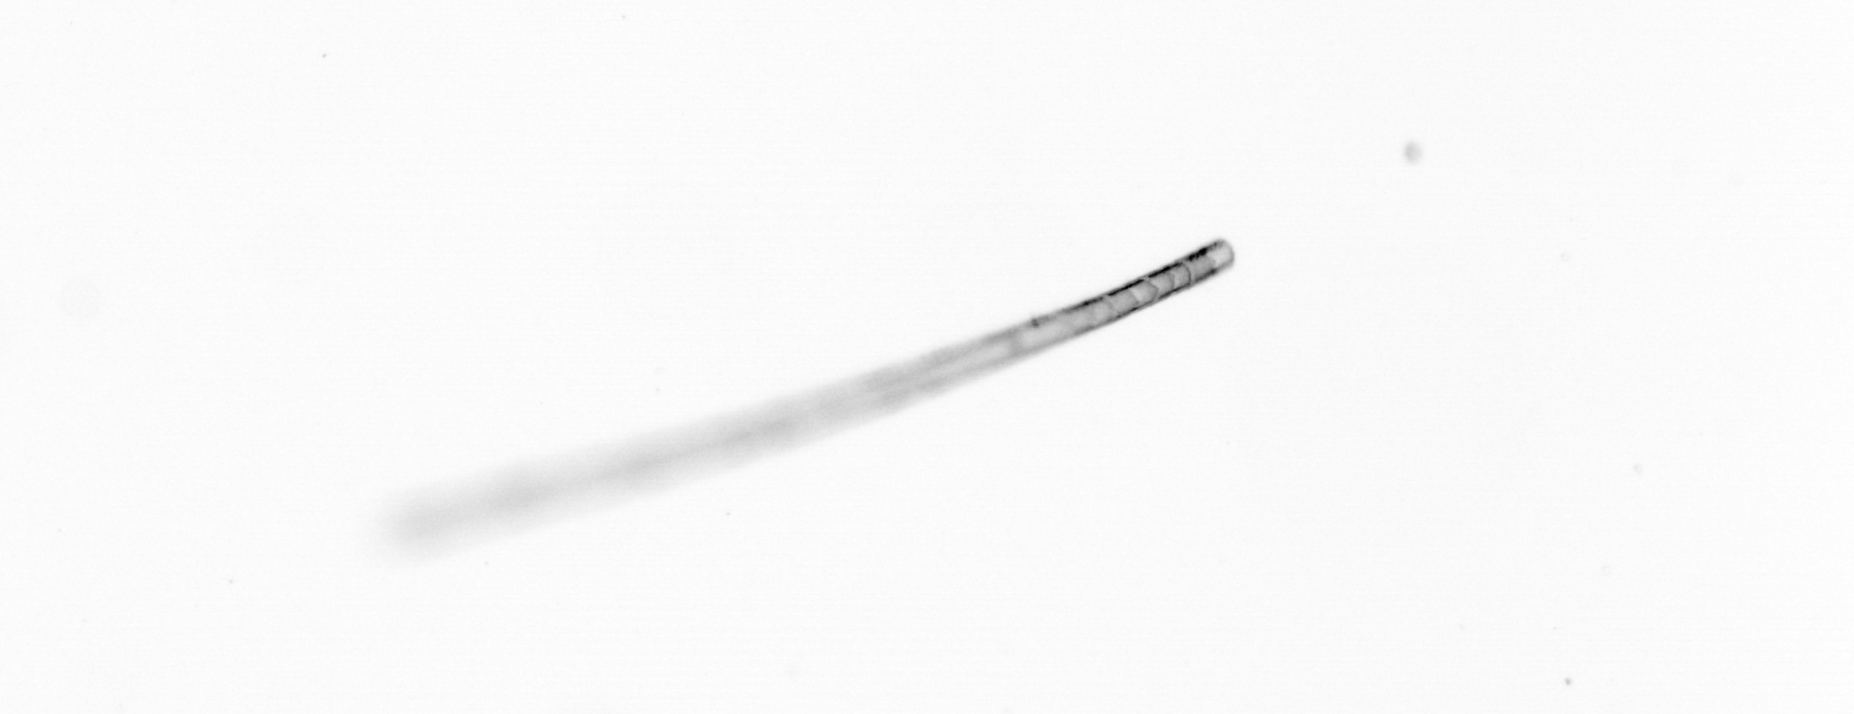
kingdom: Chromista
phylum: Ochrophyta
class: Bacillariophyceae
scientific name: Bacillariophyceae
